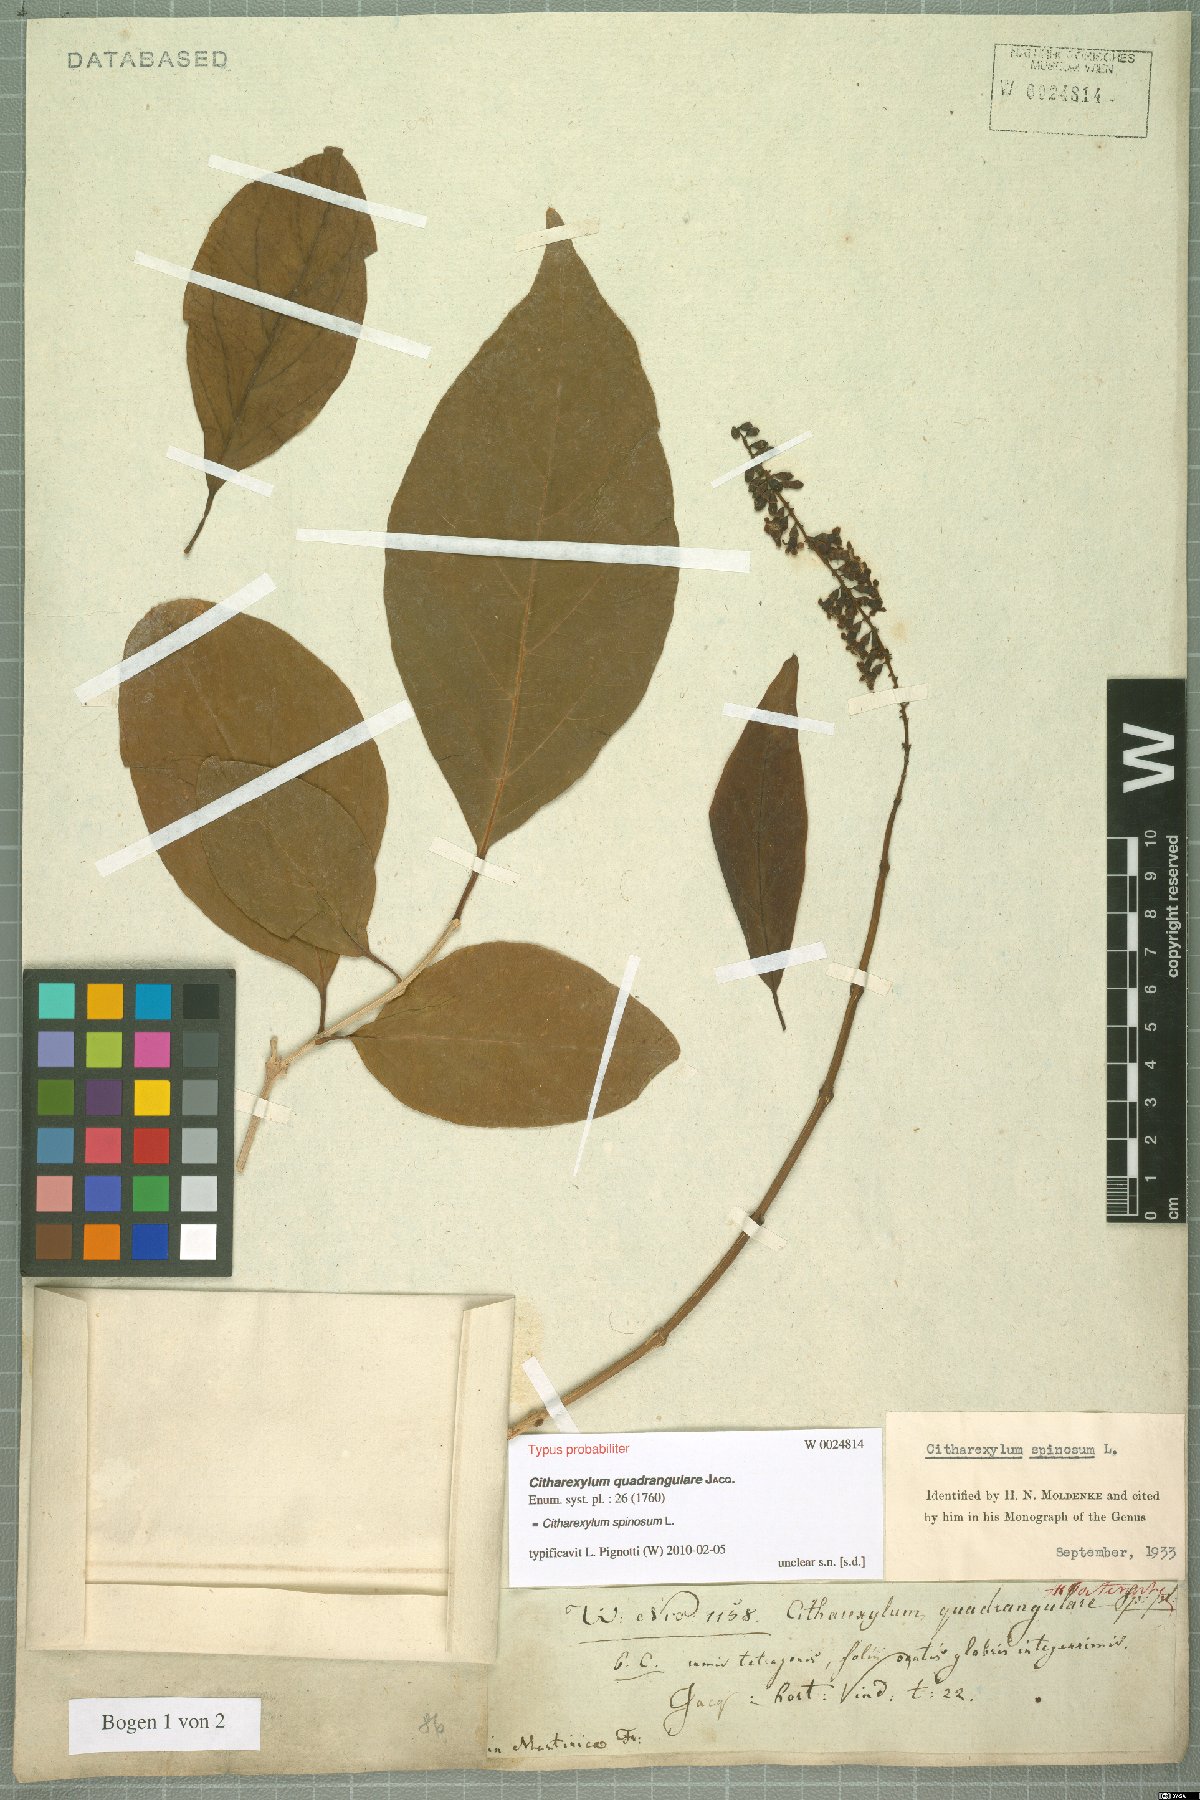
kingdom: Plantae
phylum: Tracheophyta
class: Magnoliopsida
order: Lamiales
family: Verbenaceae
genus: Citharexylum
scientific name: Citharexylum spinosum
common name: Fiddlewood
